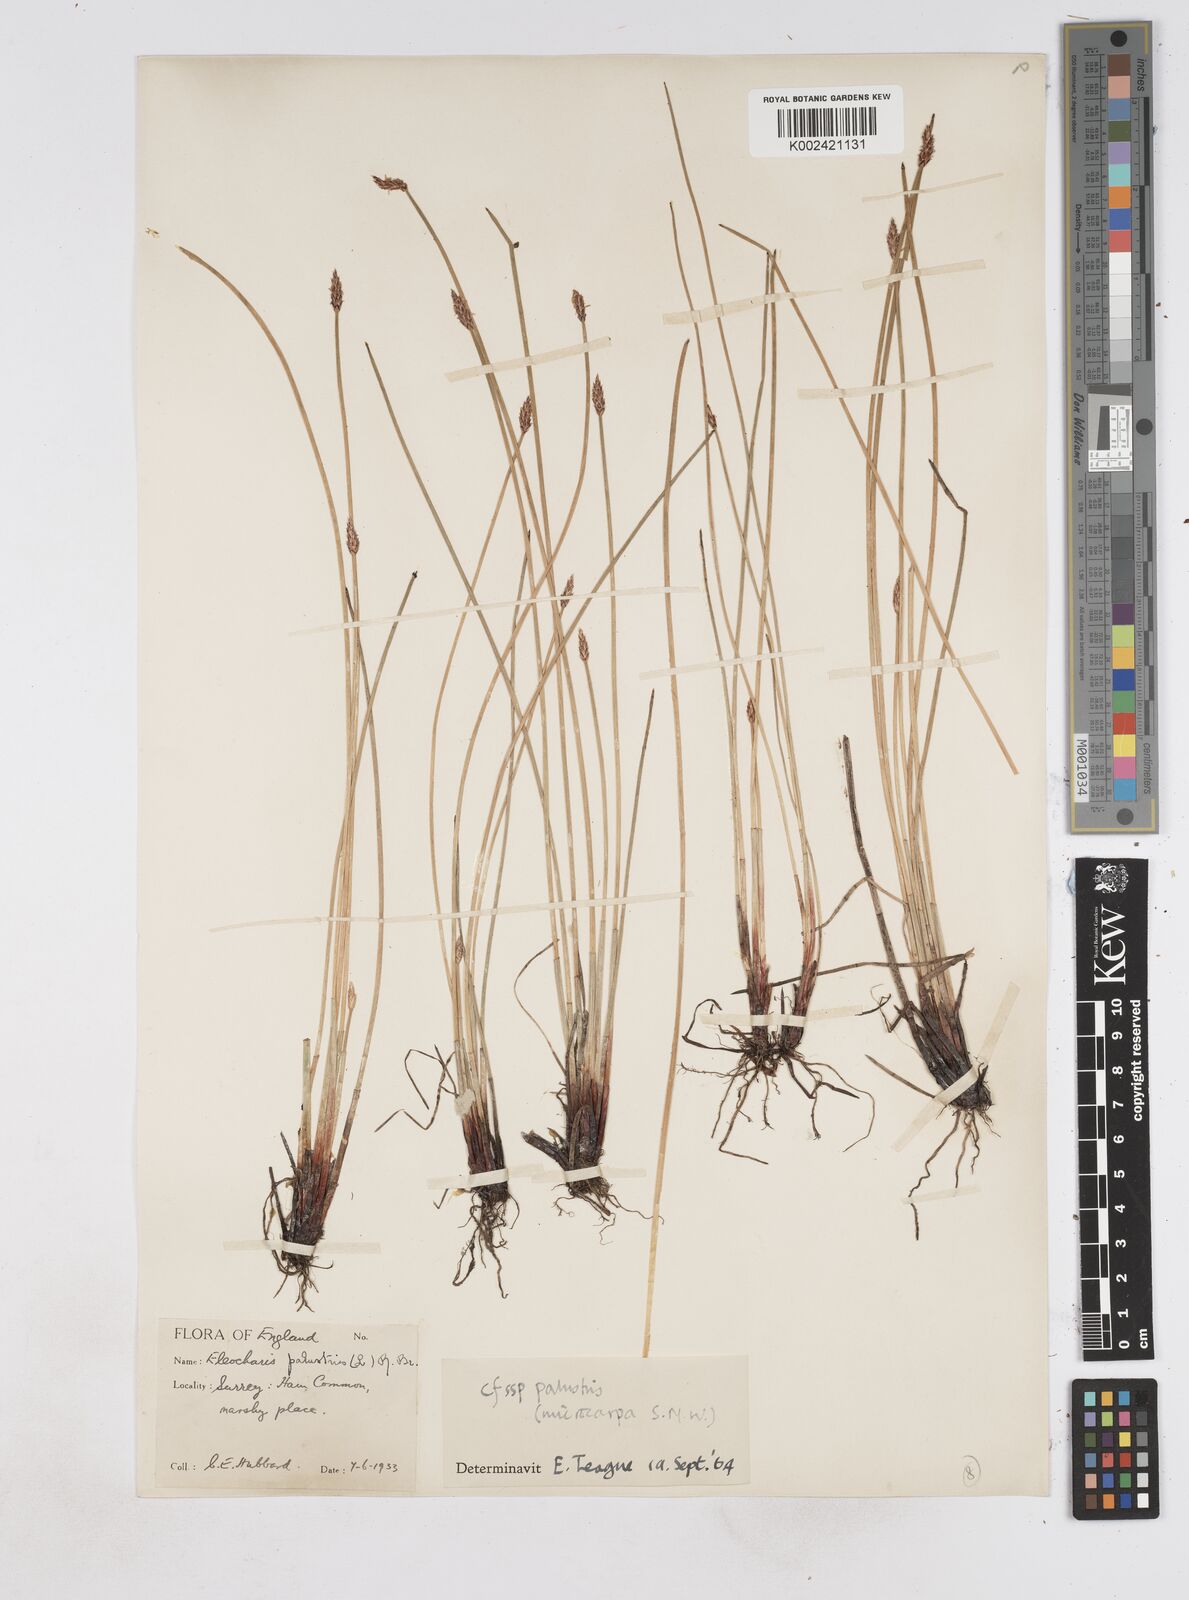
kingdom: Plantae
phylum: Tracheophyta
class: Liliopsida
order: Poales
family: Cyperaceae
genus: Eleocharis
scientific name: Eleocharis palustris
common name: Common spike-rush
